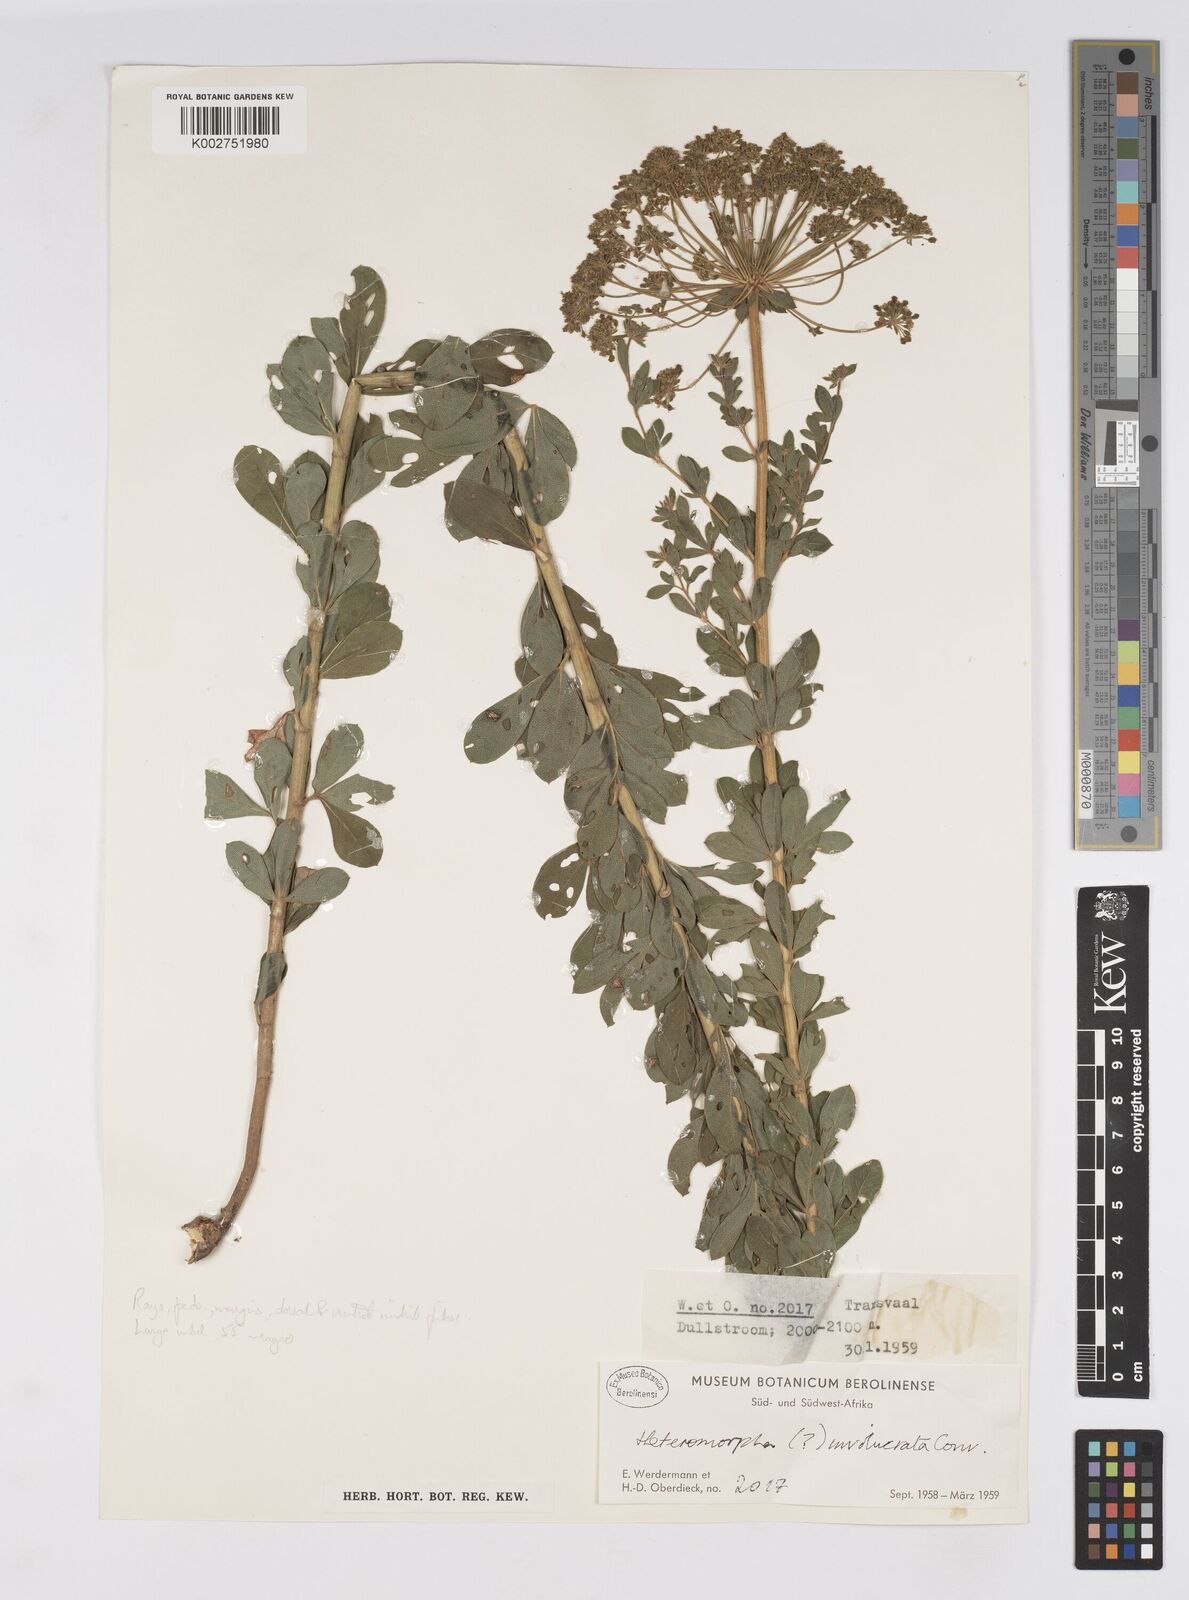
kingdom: Plantae
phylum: Tracheophyta
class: Magnoliopsida
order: Apiales
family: Apiaceae
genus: Heteromorpha
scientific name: Heteromorpha involucrata
